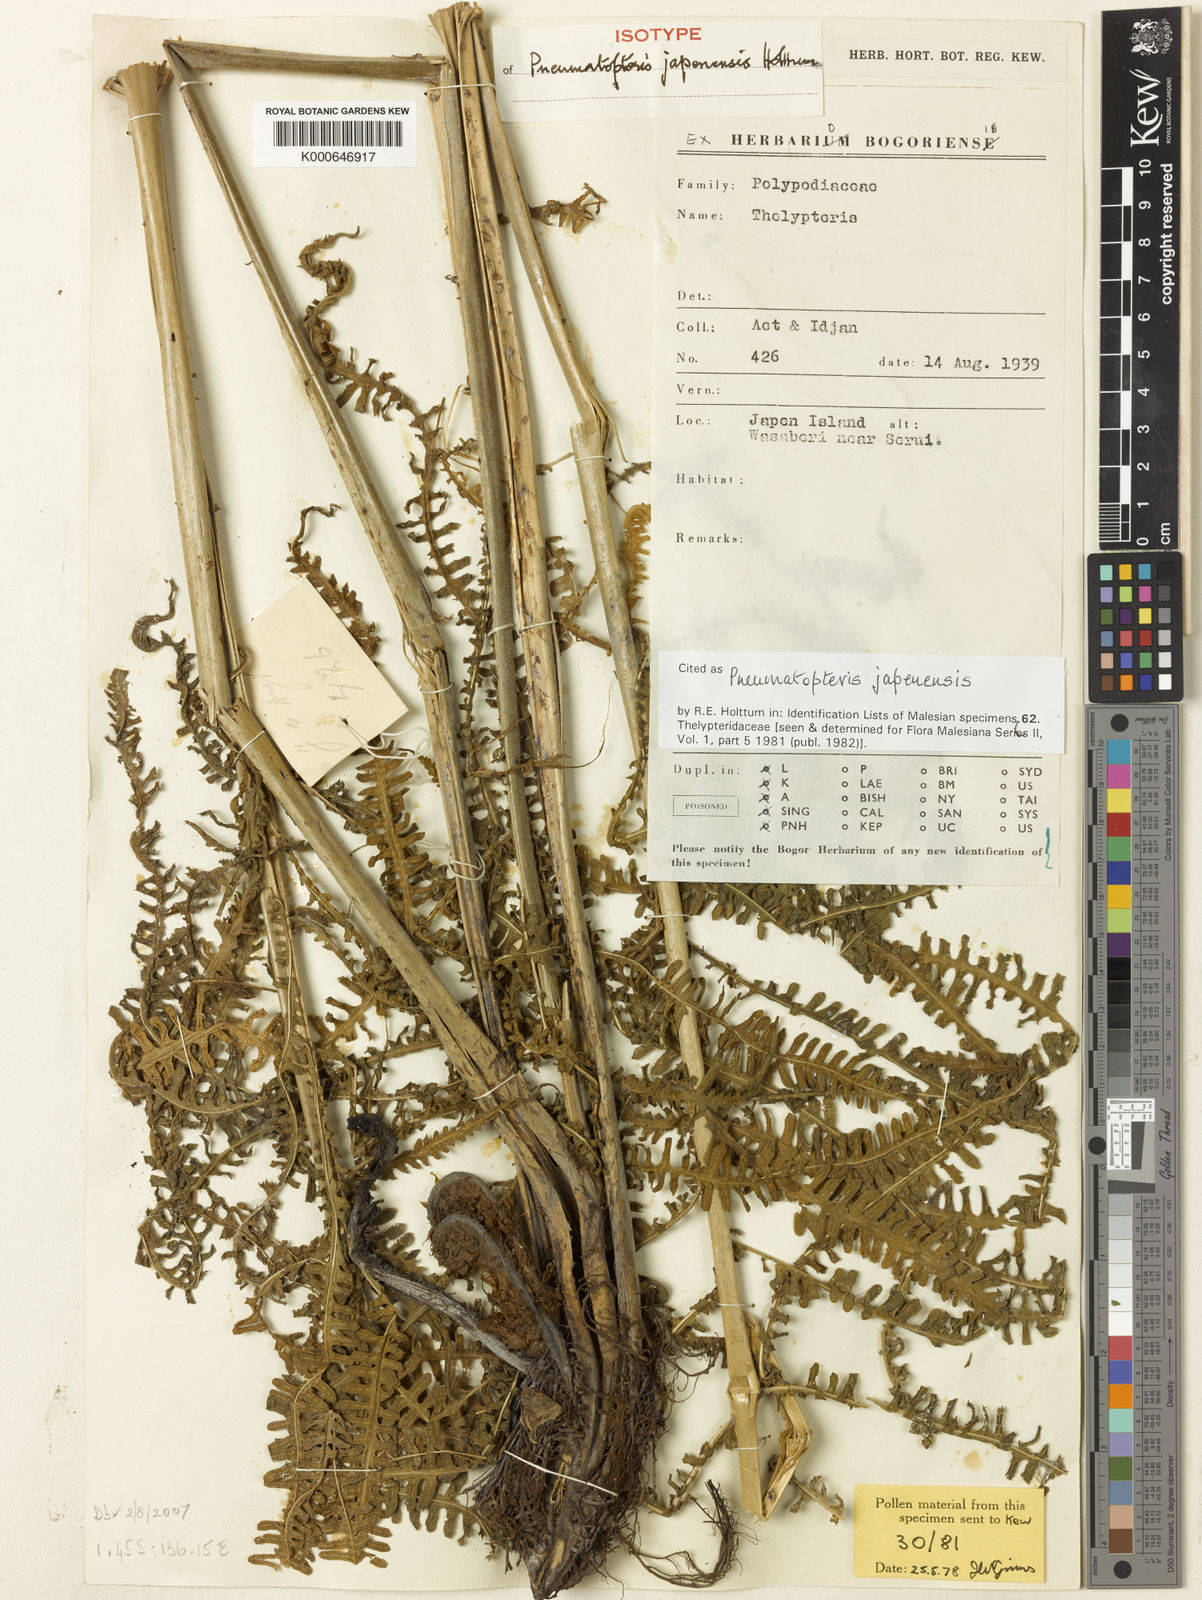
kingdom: Plantae
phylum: Tracheophyta
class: Polypodiopsida
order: Polypodiales
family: Thelypteridaceae
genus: Pneumatopteris
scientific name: Pneumatopteris japenensis
